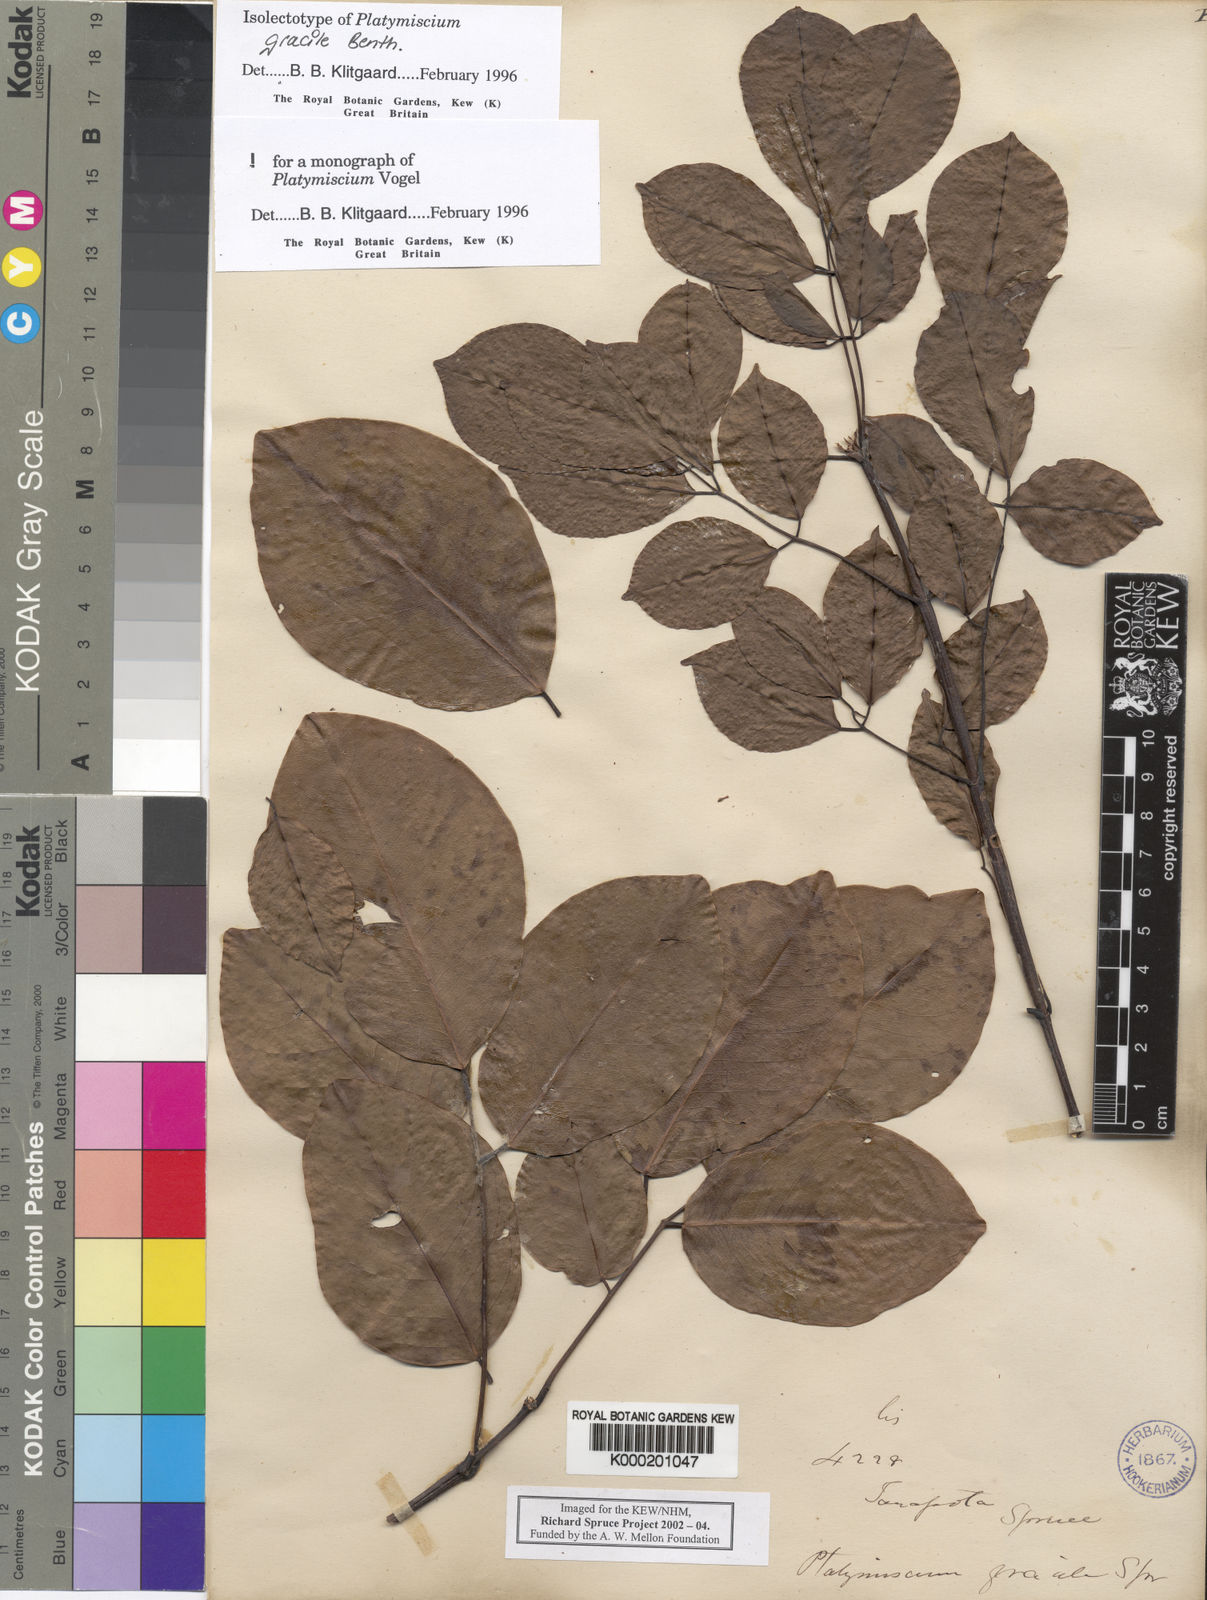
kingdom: Plantae
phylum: Tracheophyta
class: Magnoliopsida
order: Fabales
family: Fabaceae
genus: Platymiscium
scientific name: Platymiscium gracile
